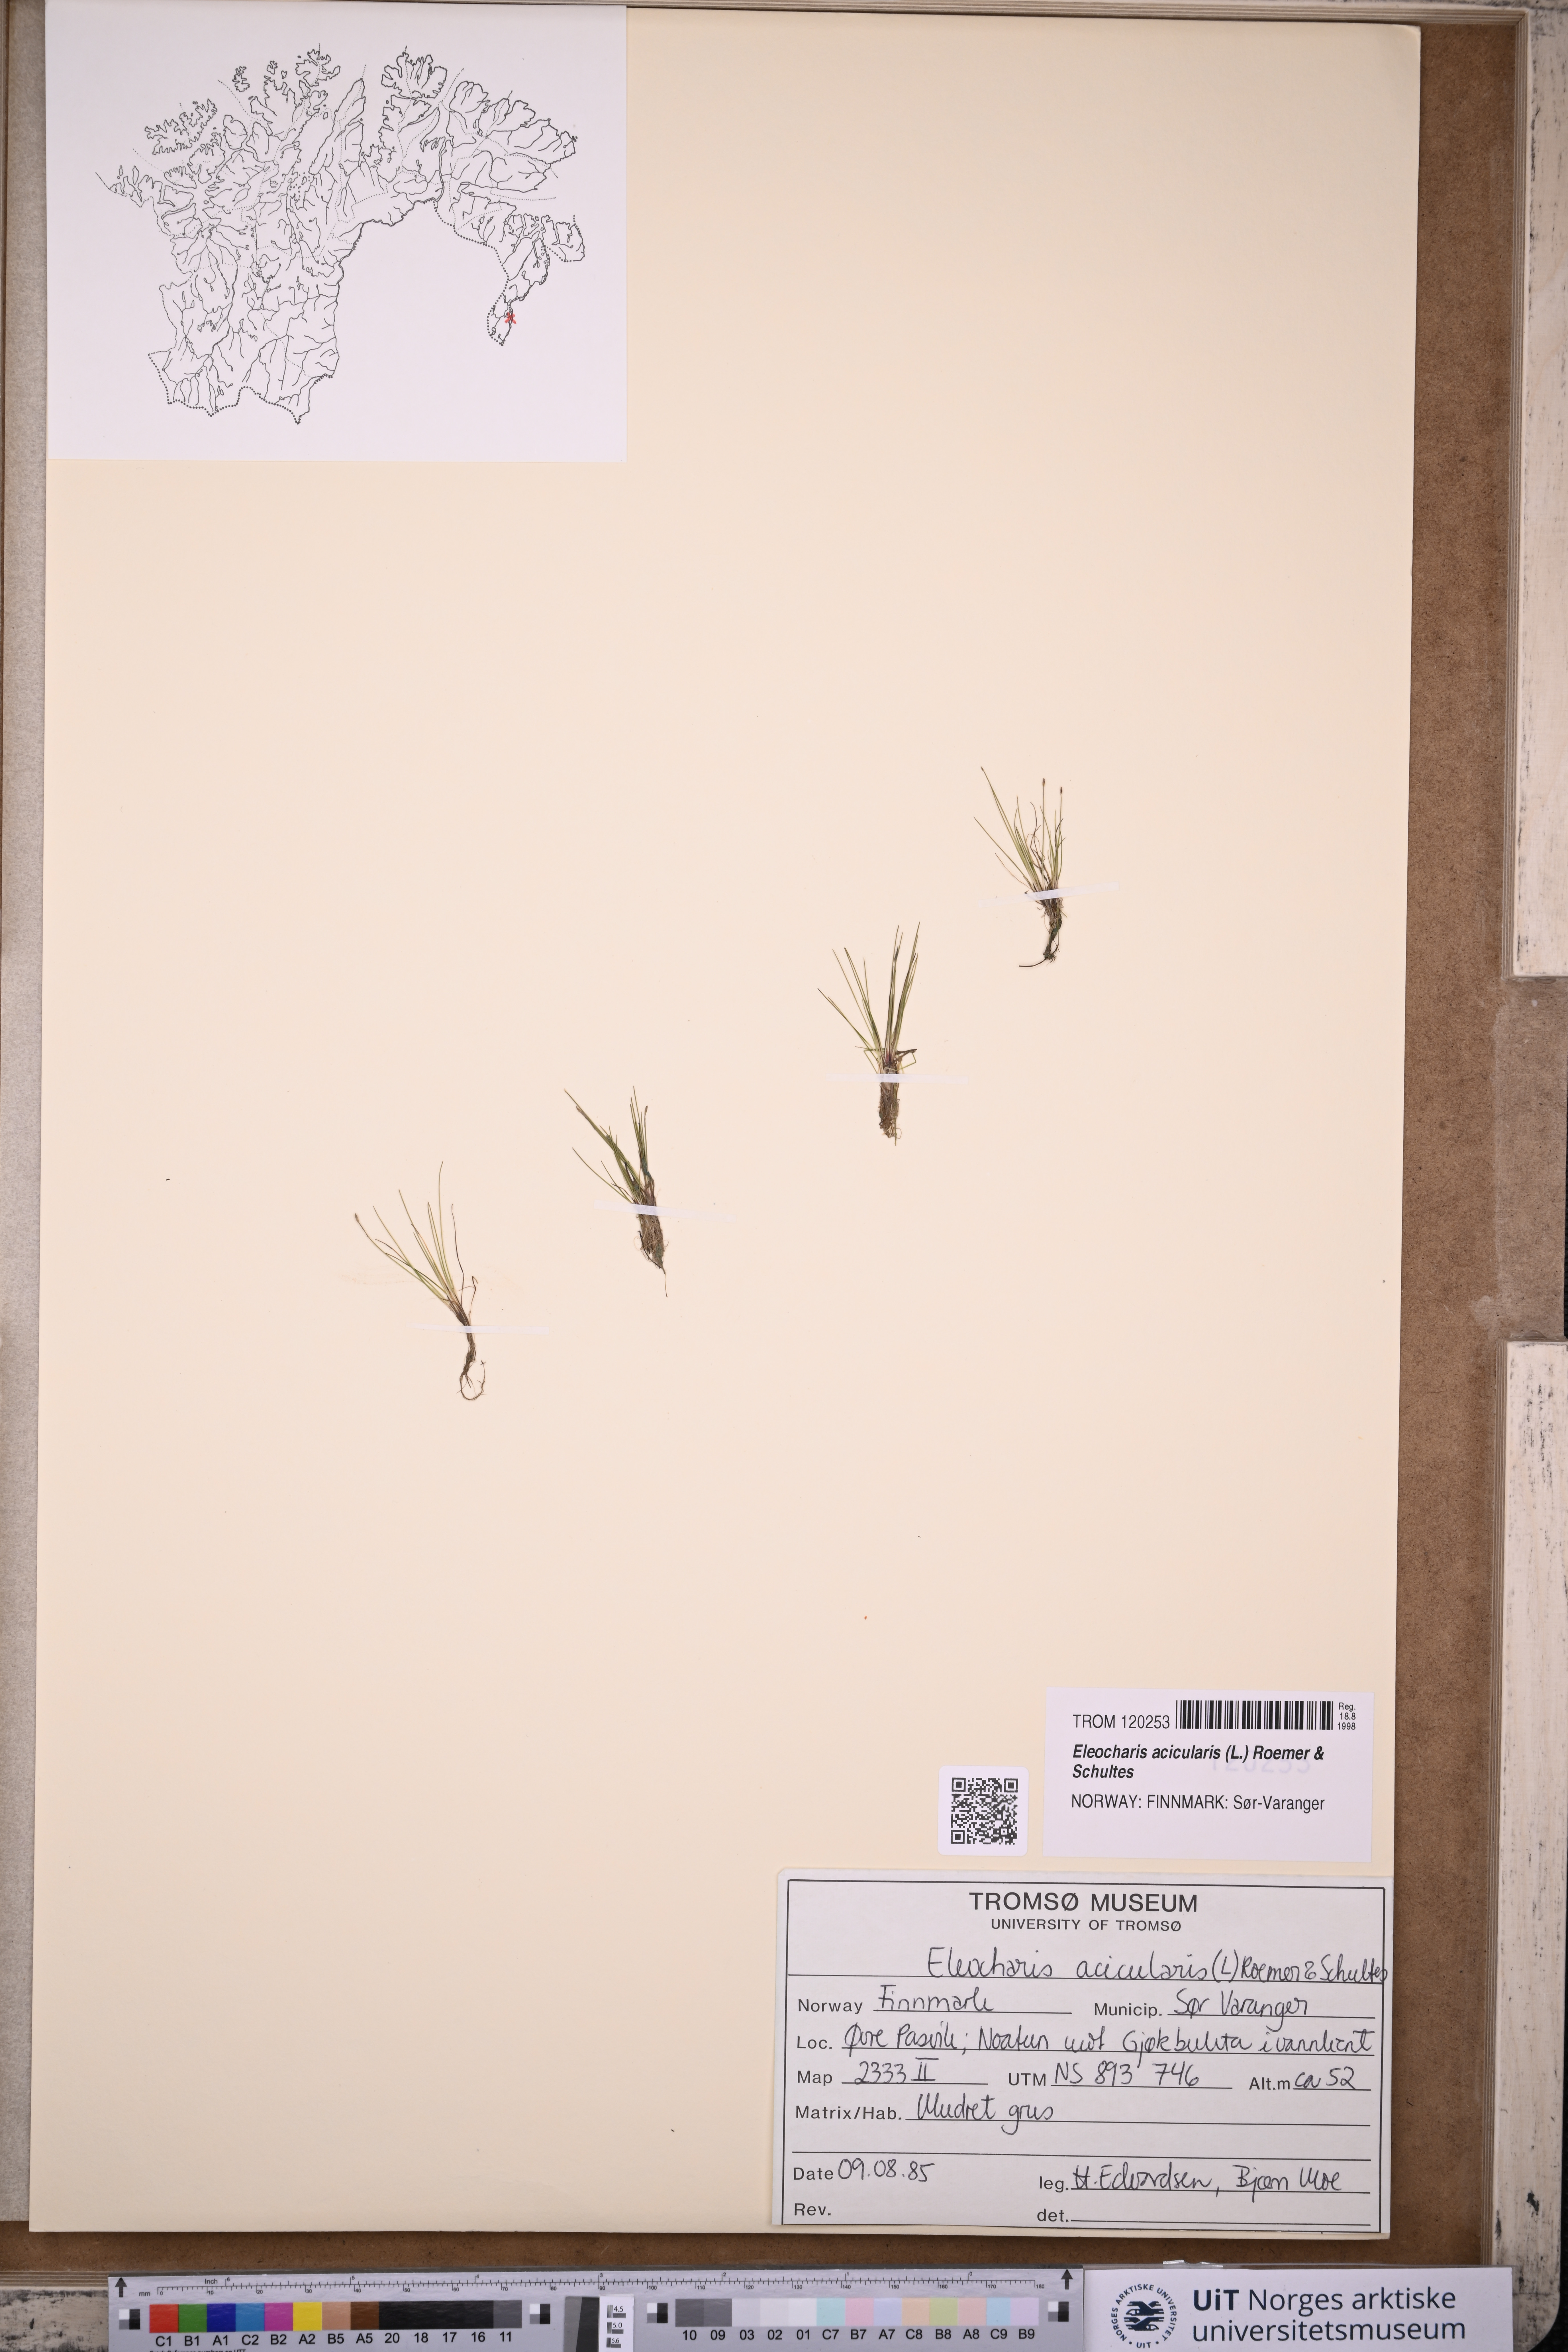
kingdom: Plantae
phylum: Tracheophyta
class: Liliopsida
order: Poales
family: Cyperaceae
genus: Eleocharis
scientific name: Eleocharis acicularis
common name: Needle spike-rush
